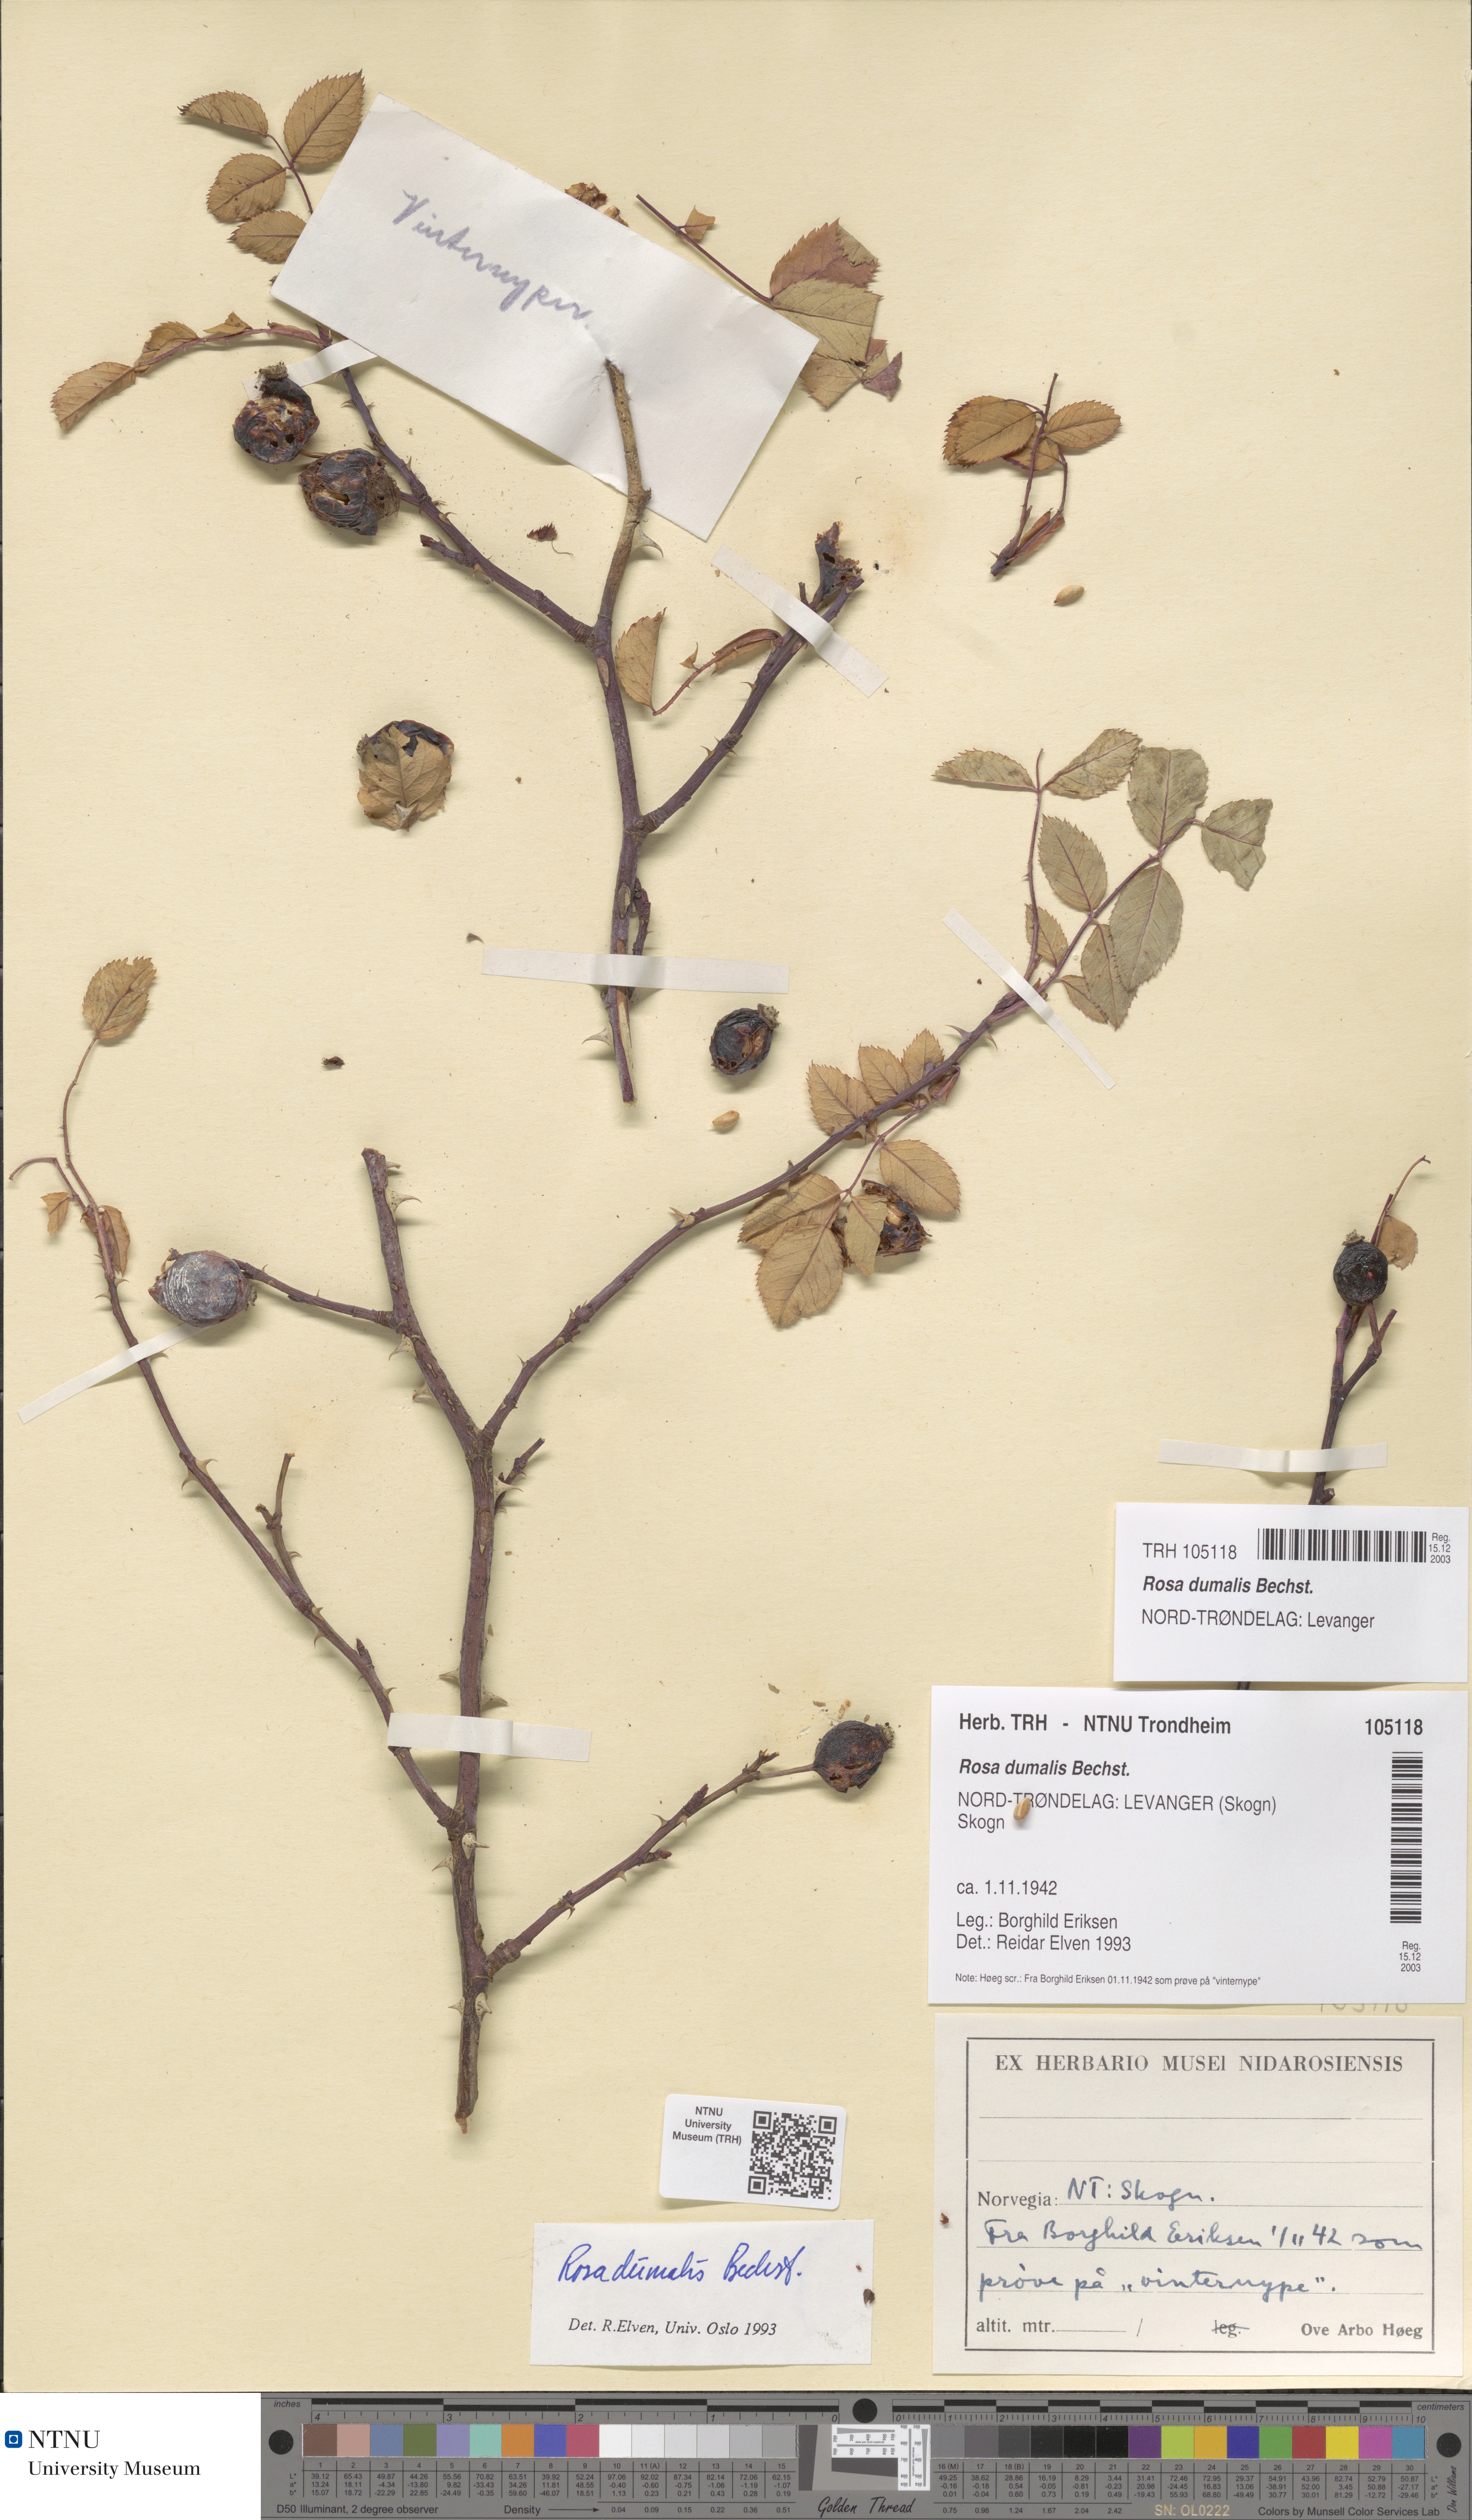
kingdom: Plantae
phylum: Tracheophyta
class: Magnoliopsida
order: Rosales
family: Rosaceae
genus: Rosa
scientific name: Rosa dumalis
